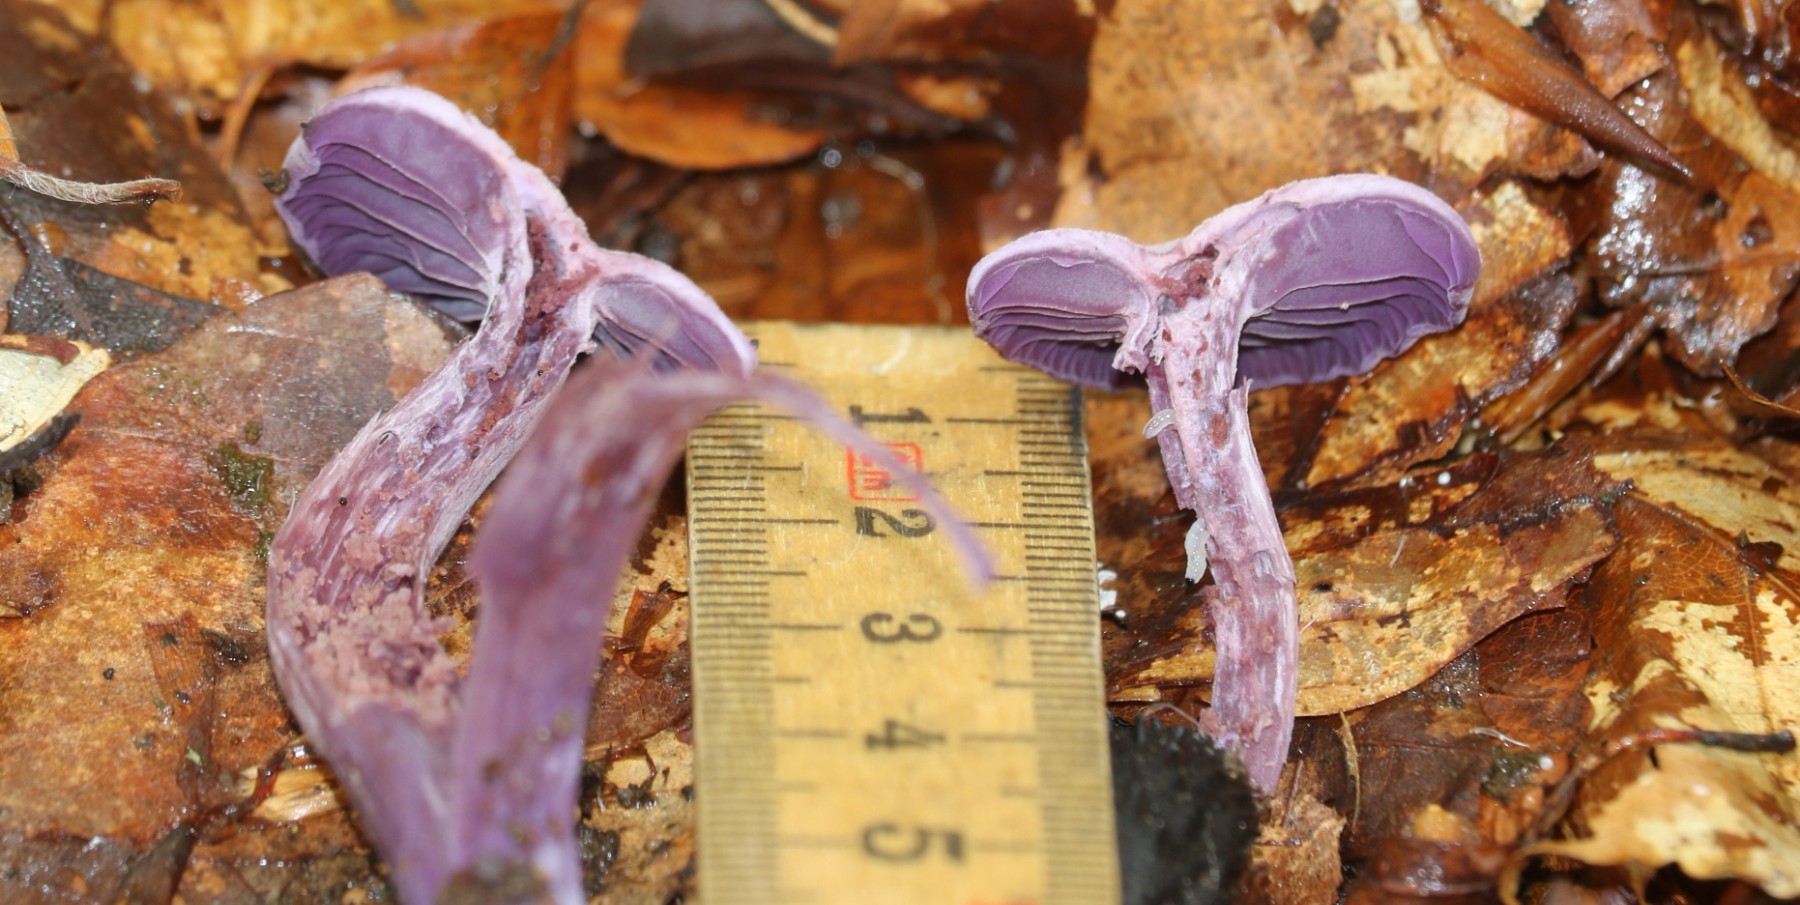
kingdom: Fungi
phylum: Basidiomycota
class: Agaricomycetes
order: Agaricales
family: Hydnangiaceae
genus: Laccaria
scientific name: Laccaria amethystina
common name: violet ametysthat
